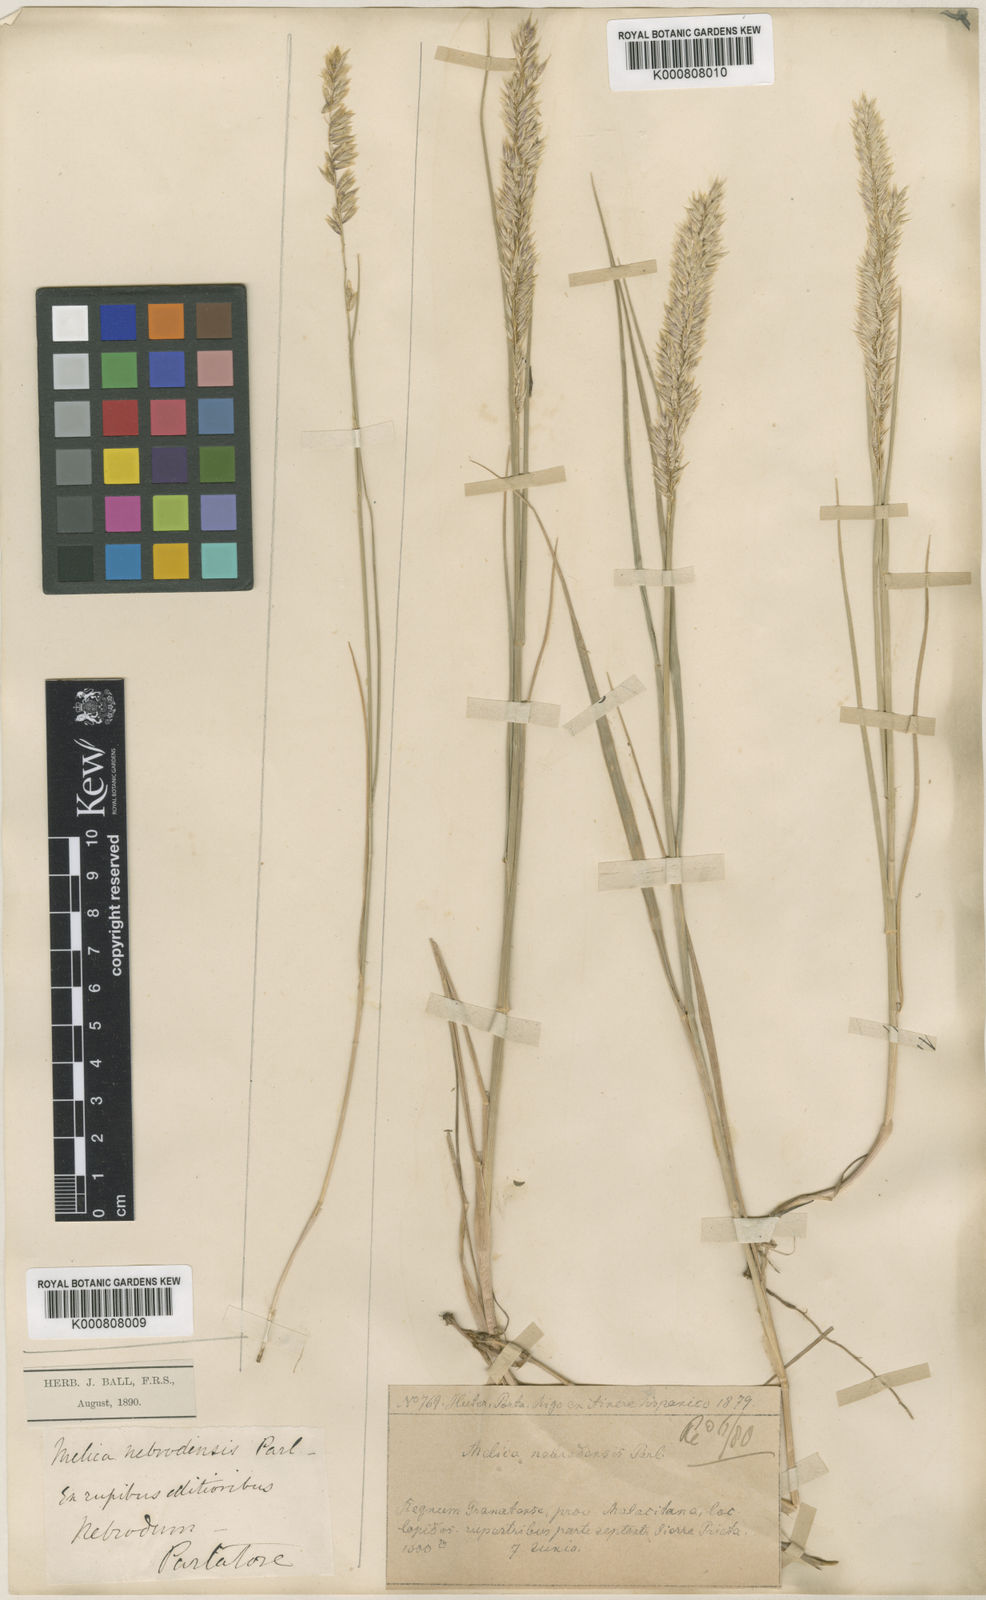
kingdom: Plantae
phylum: Tracheophyta
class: Liliopsida
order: Poales
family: Poaceae
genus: Melica
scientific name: Melica ciliata
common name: Hairy melicgrass
